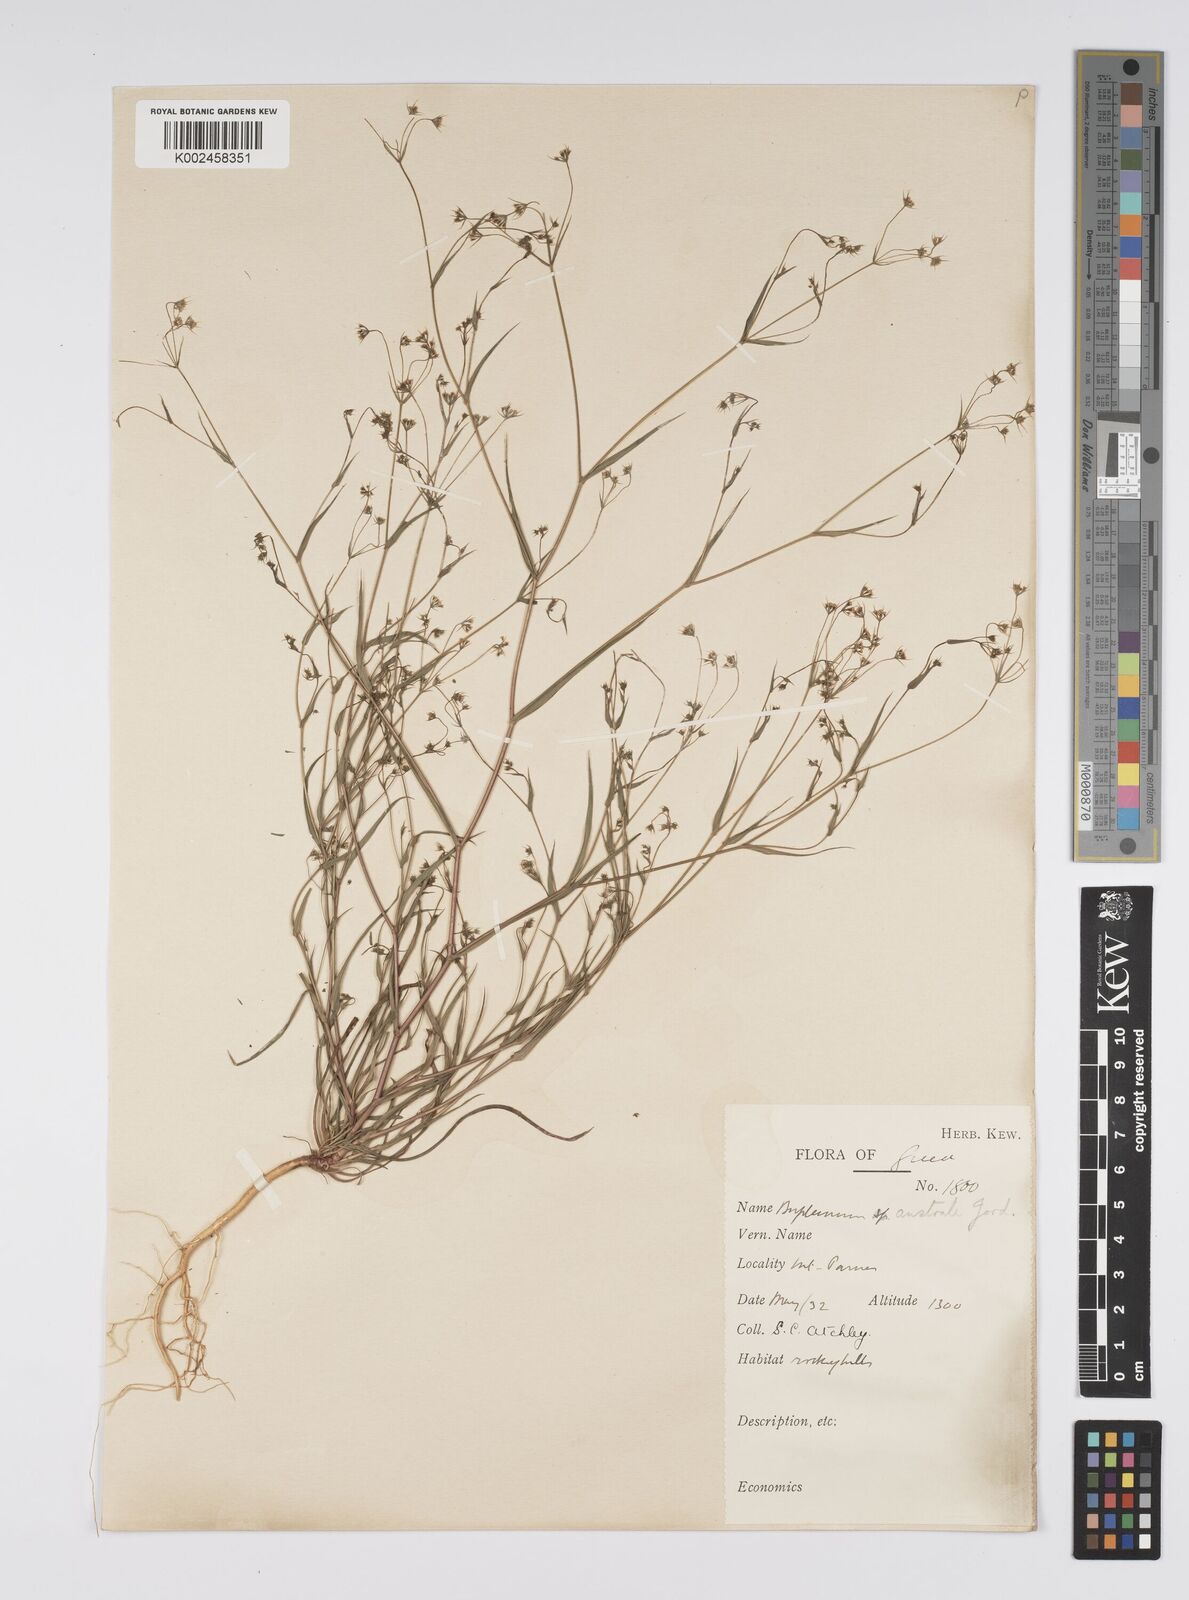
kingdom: Plantae
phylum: Tracheophyta
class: Magnoliopsida
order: Apiales
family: Apiaceae
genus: Bupleurum
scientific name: Bupleurum gerardi
